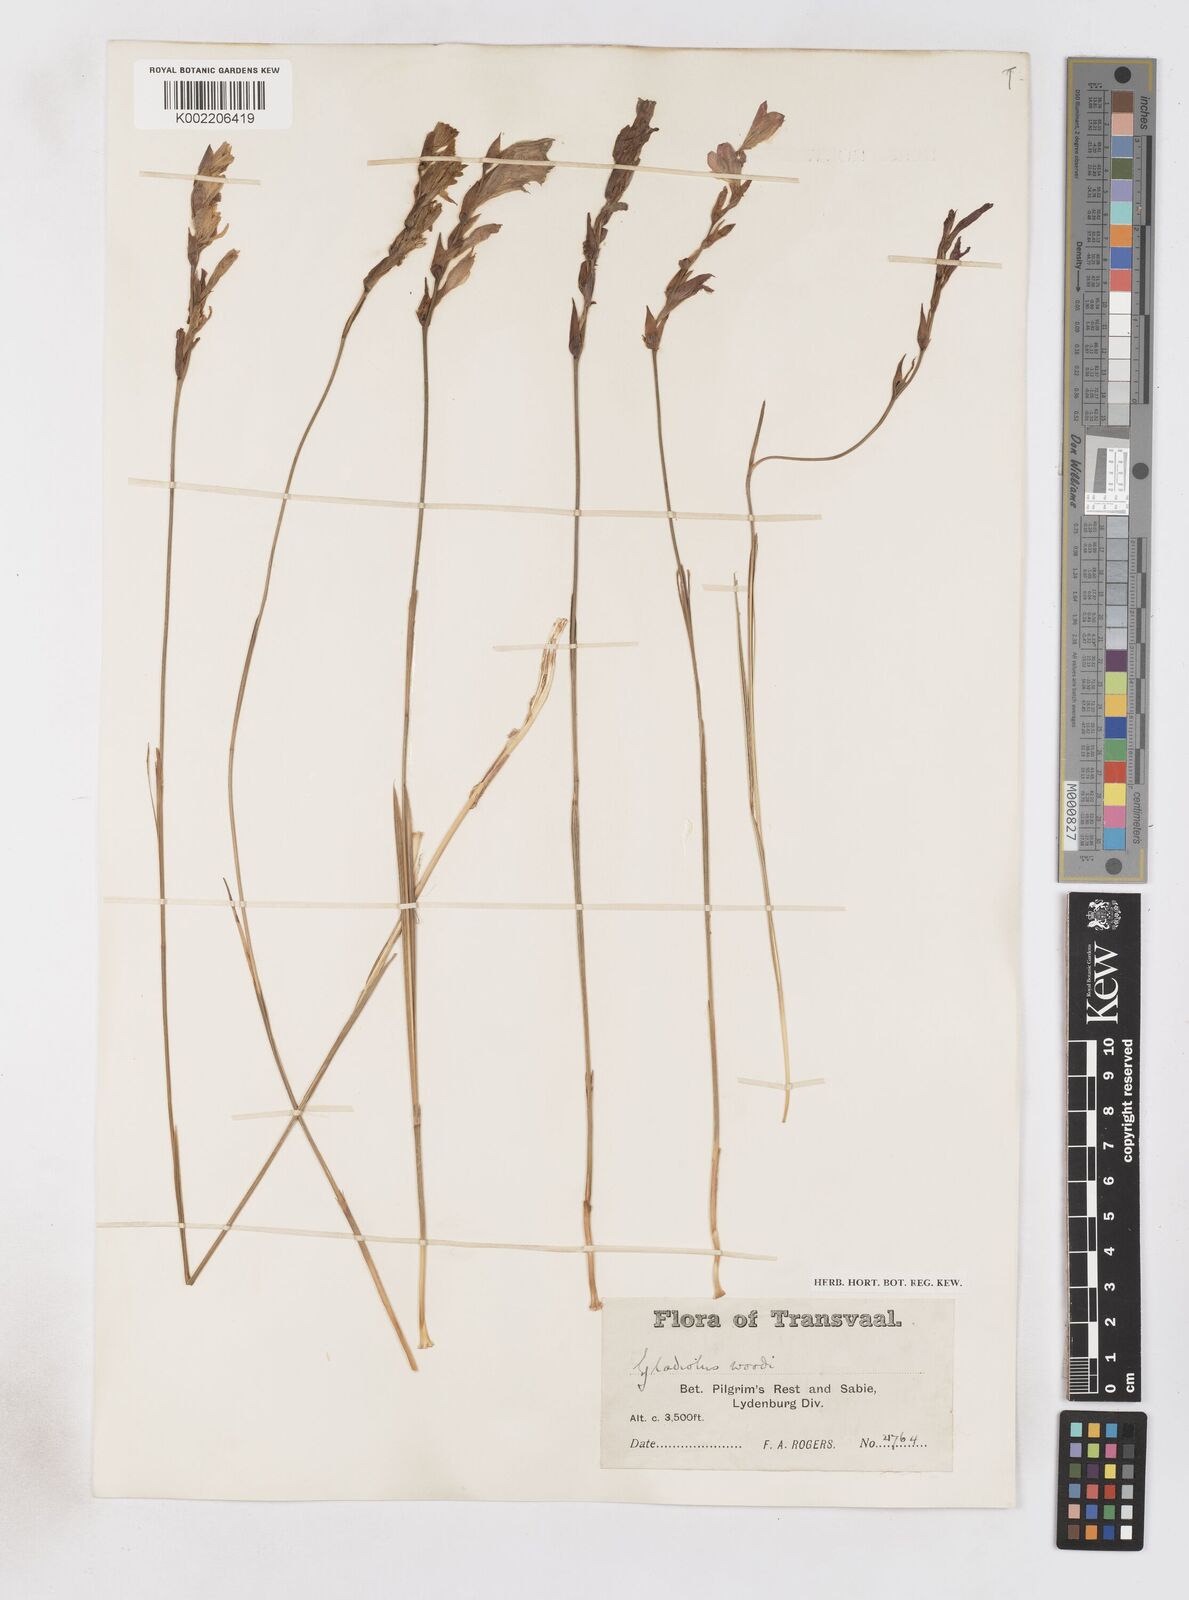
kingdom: Plantae
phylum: Tracheophyta
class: Liliopsida
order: Asparagales
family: Iridaceae
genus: Gladiolus
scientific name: Gladiolus woodii
